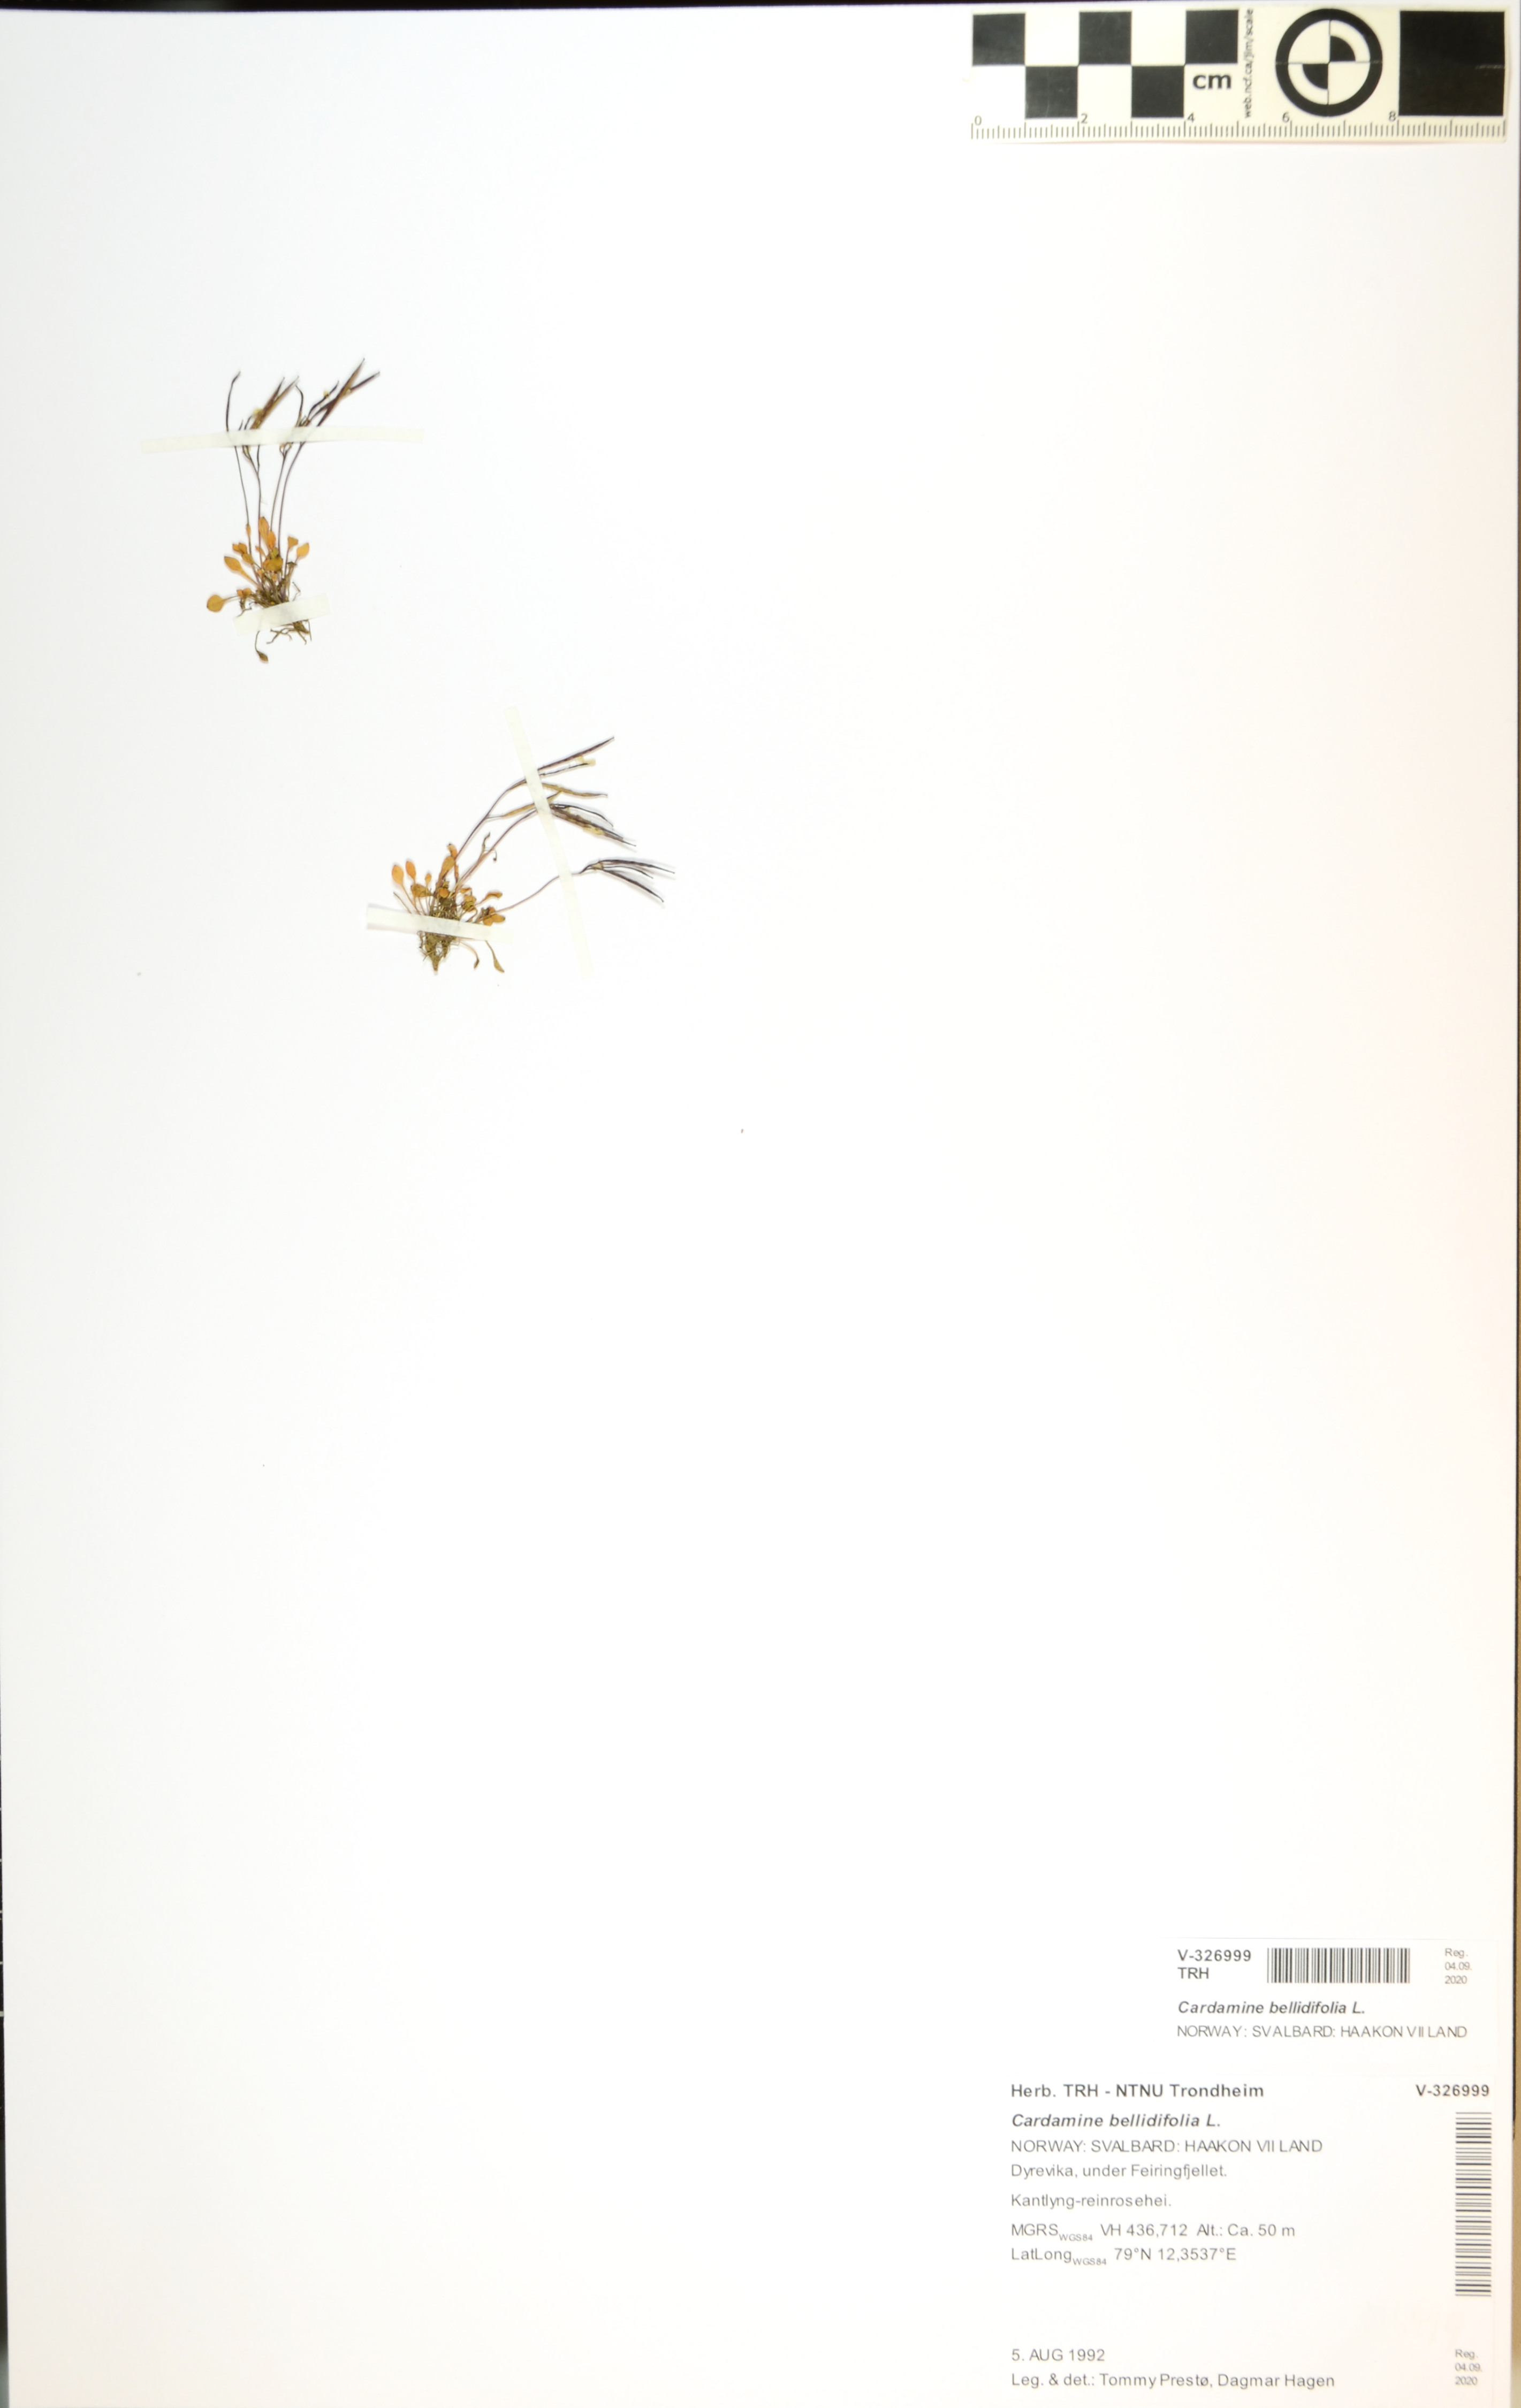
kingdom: Plantae
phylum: Tracheophyta
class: Magnoliopsida
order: Brassicales
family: Brassicaceae
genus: Cardamine
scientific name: Cardamine bellidifolia
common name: Alpine bittercress
